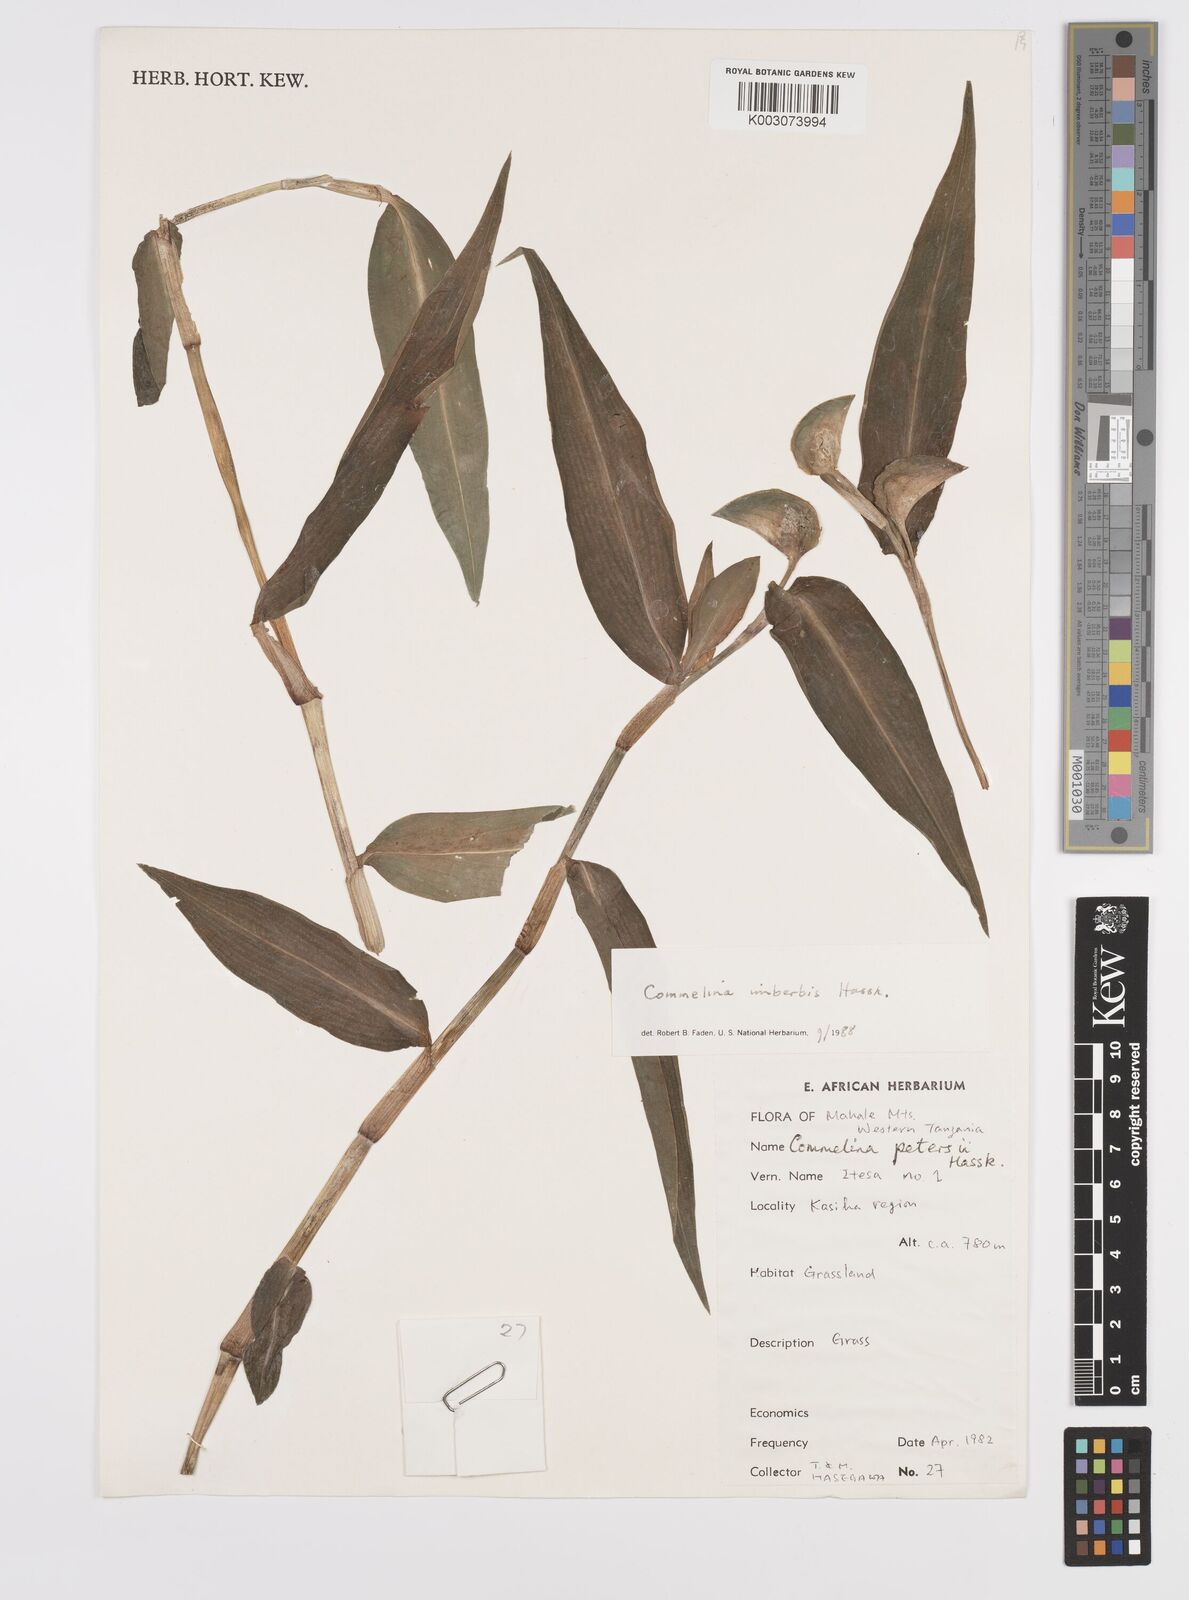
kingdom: Plantae
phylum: Tracheophyta
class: Liliopsida
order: Commelinales
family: Commelinaceae
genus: Commelina
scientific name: Commelina imberbis
